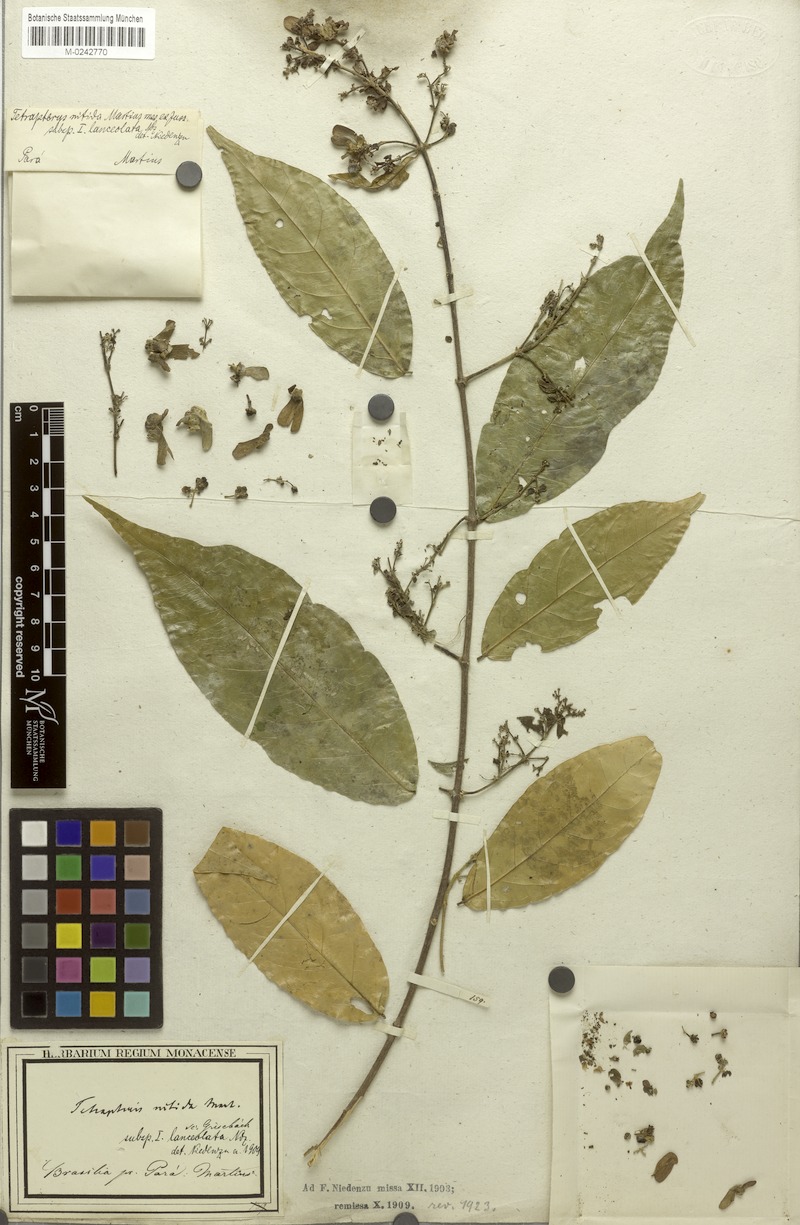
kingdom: Plantae
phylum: Tracheophyta
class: Magnoliopsida
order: Malpighiales
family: Malpighiaceae
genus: Tetrapterys
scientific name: Tetrapterys nitida
